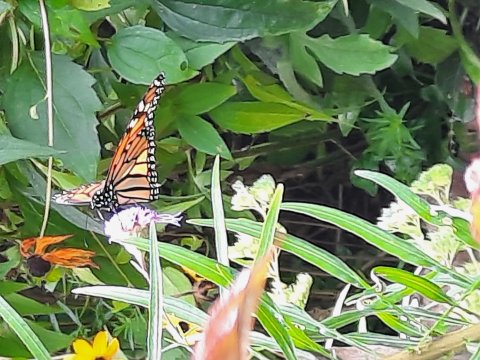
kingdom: Animalia
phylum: Arthropoda
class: Insecta
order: Lepidoptera
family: Nymphalidae
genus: Danaus
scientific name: Danaus plexippus
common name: Monarch
